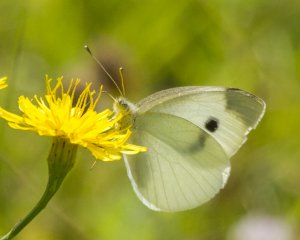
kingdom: Animalia
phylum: Arthropoda
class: Insecta
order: Lepidoptera
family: Pieridae
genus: Pieris
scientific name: Pieris rapae
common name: Cabbage White
